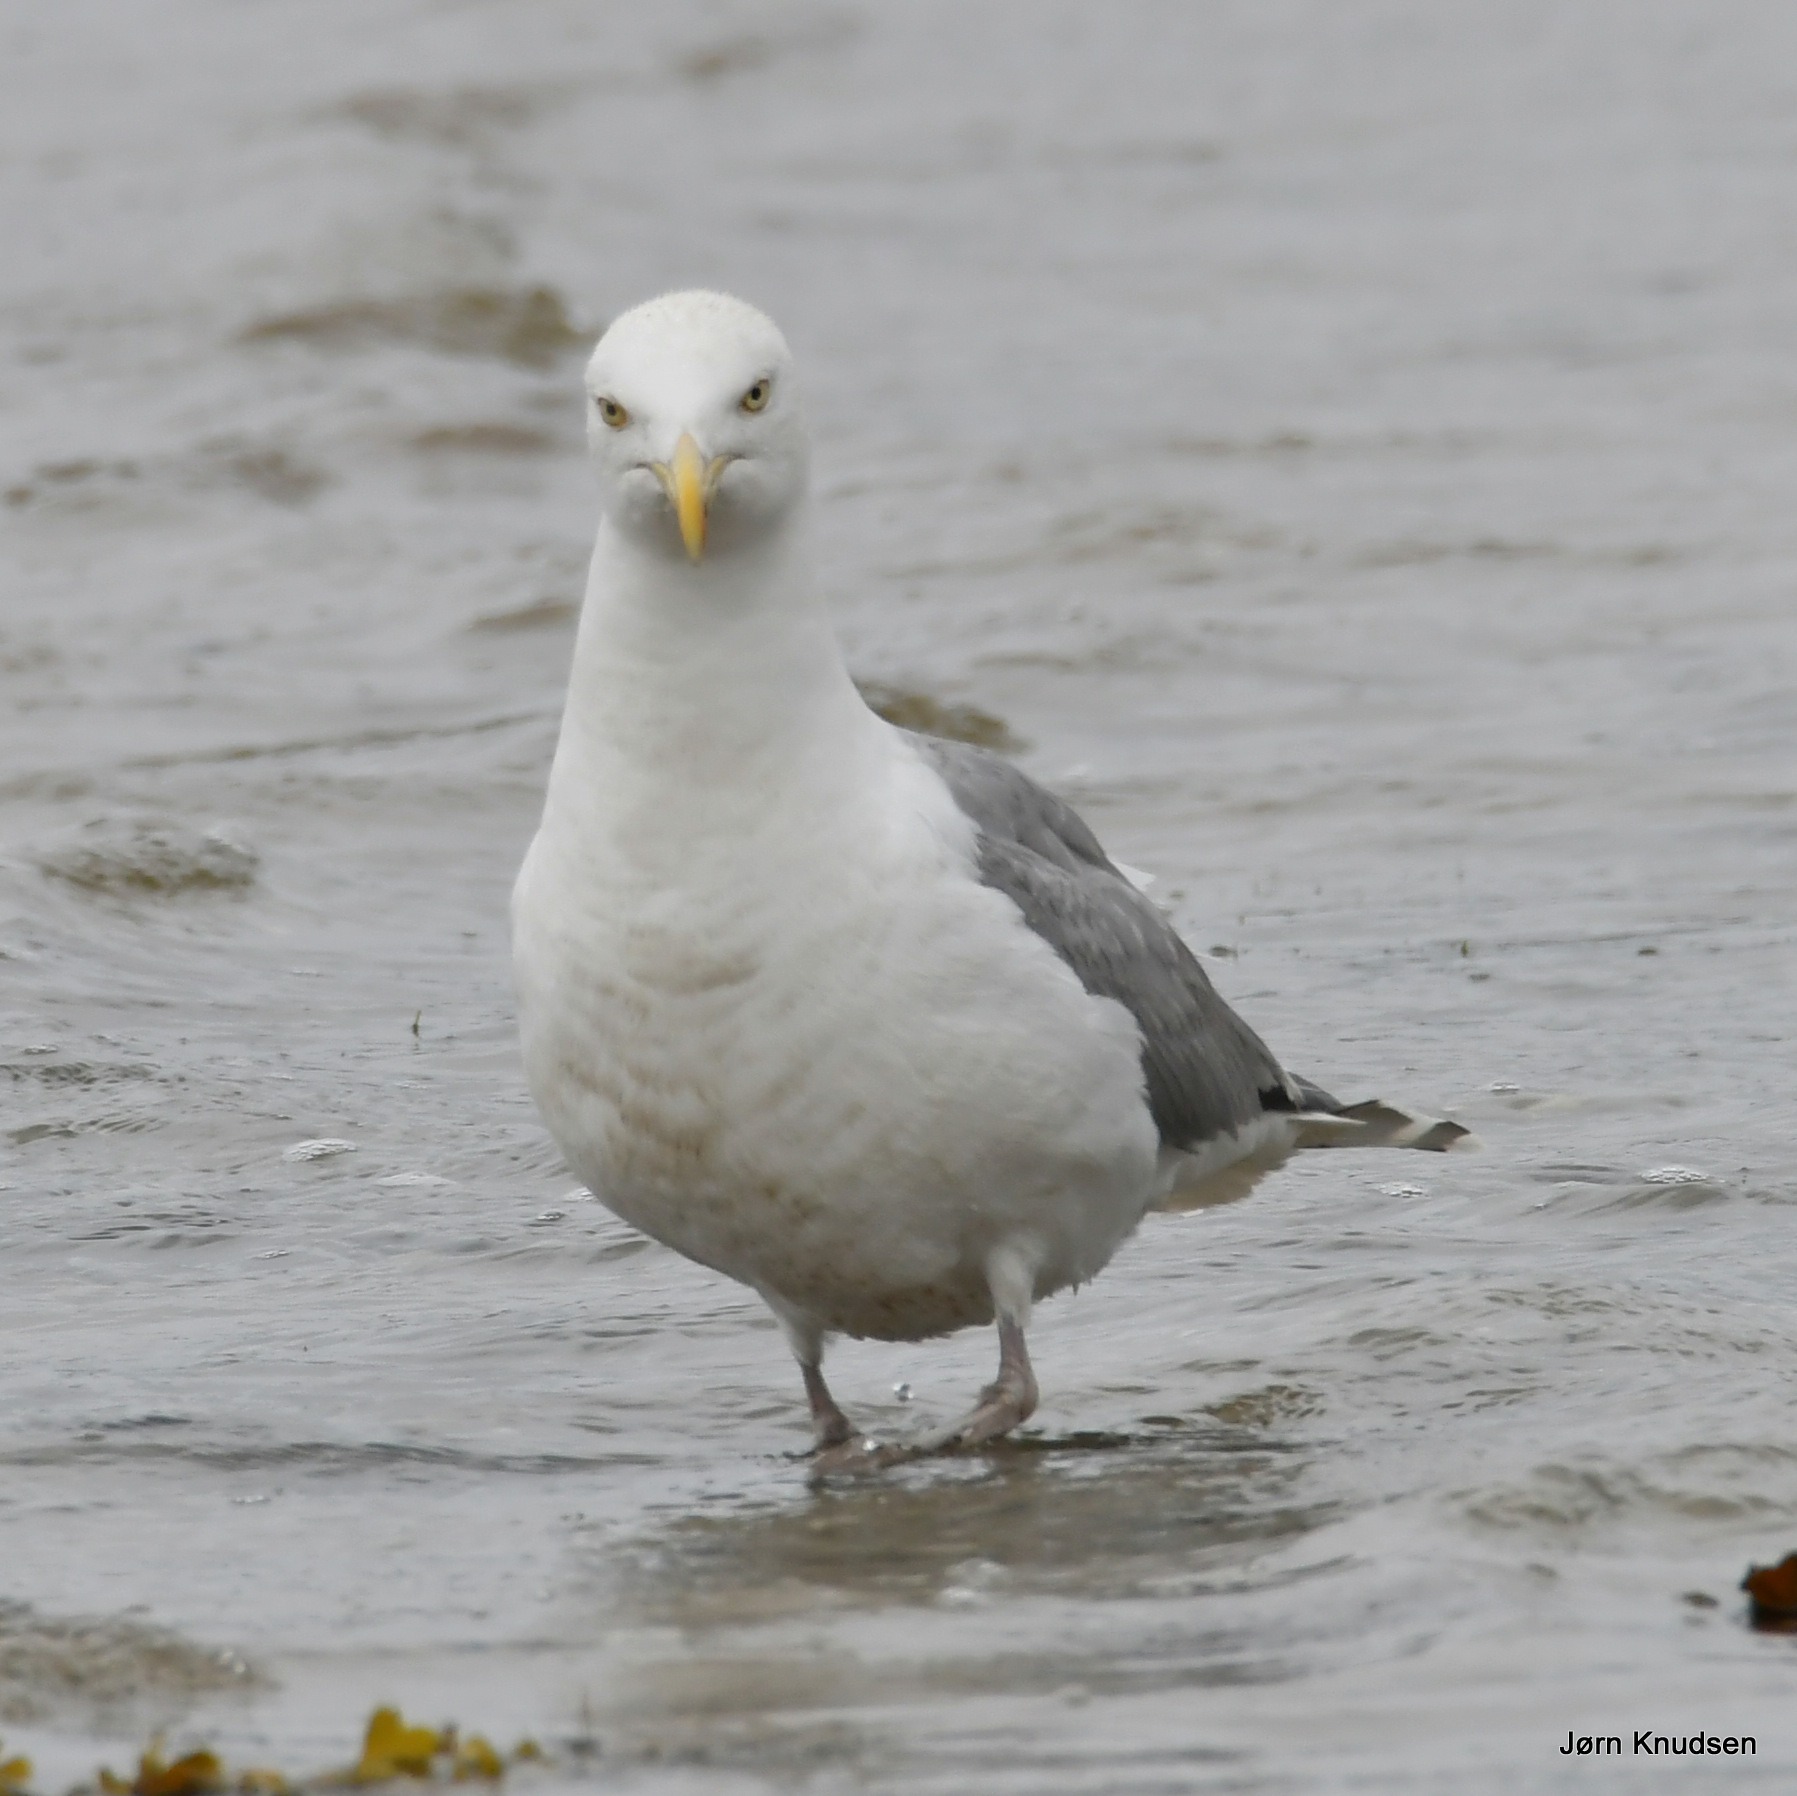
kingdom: Animalia
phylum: Chordata
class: Aves
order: Charadriiformes
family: Laridae
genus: Larus
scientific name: Larus argentatus
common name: Sølvmåge
